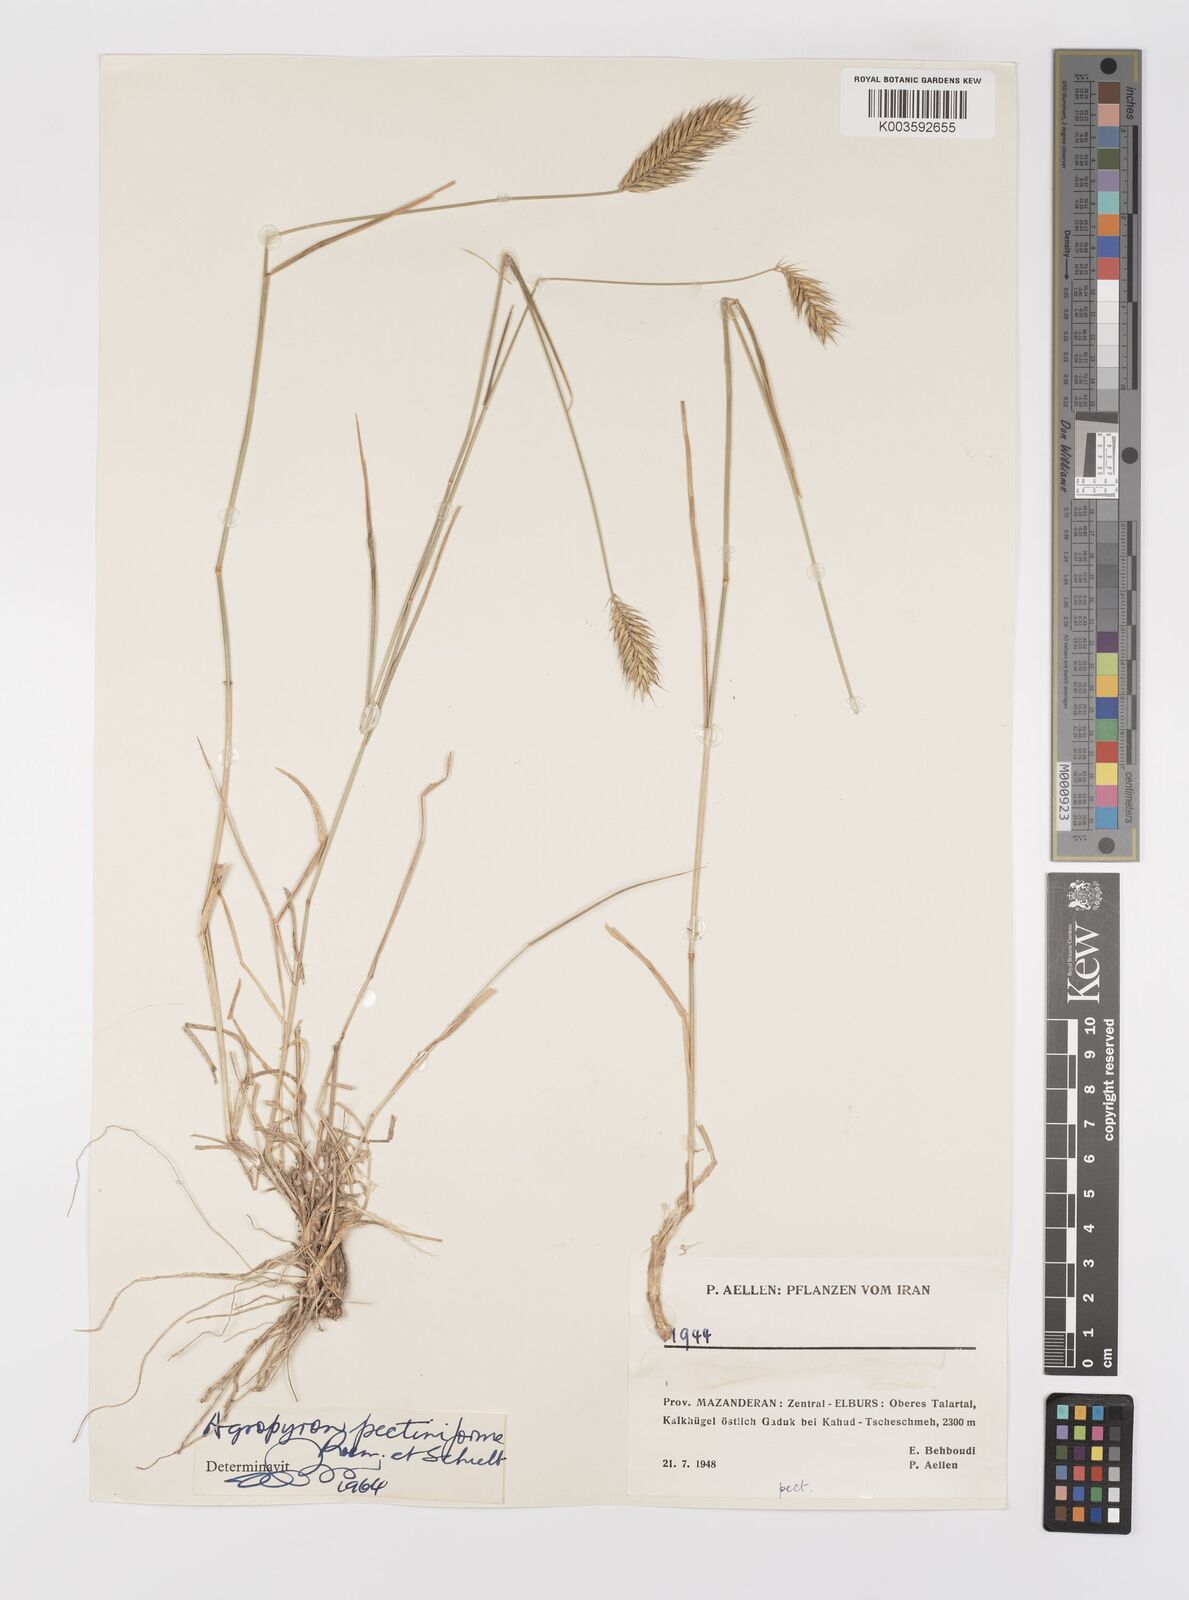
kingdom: Plantae
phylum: Tracheophyta
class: Liliopsida
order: Poales
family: Poaceae
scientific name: Poaceae
